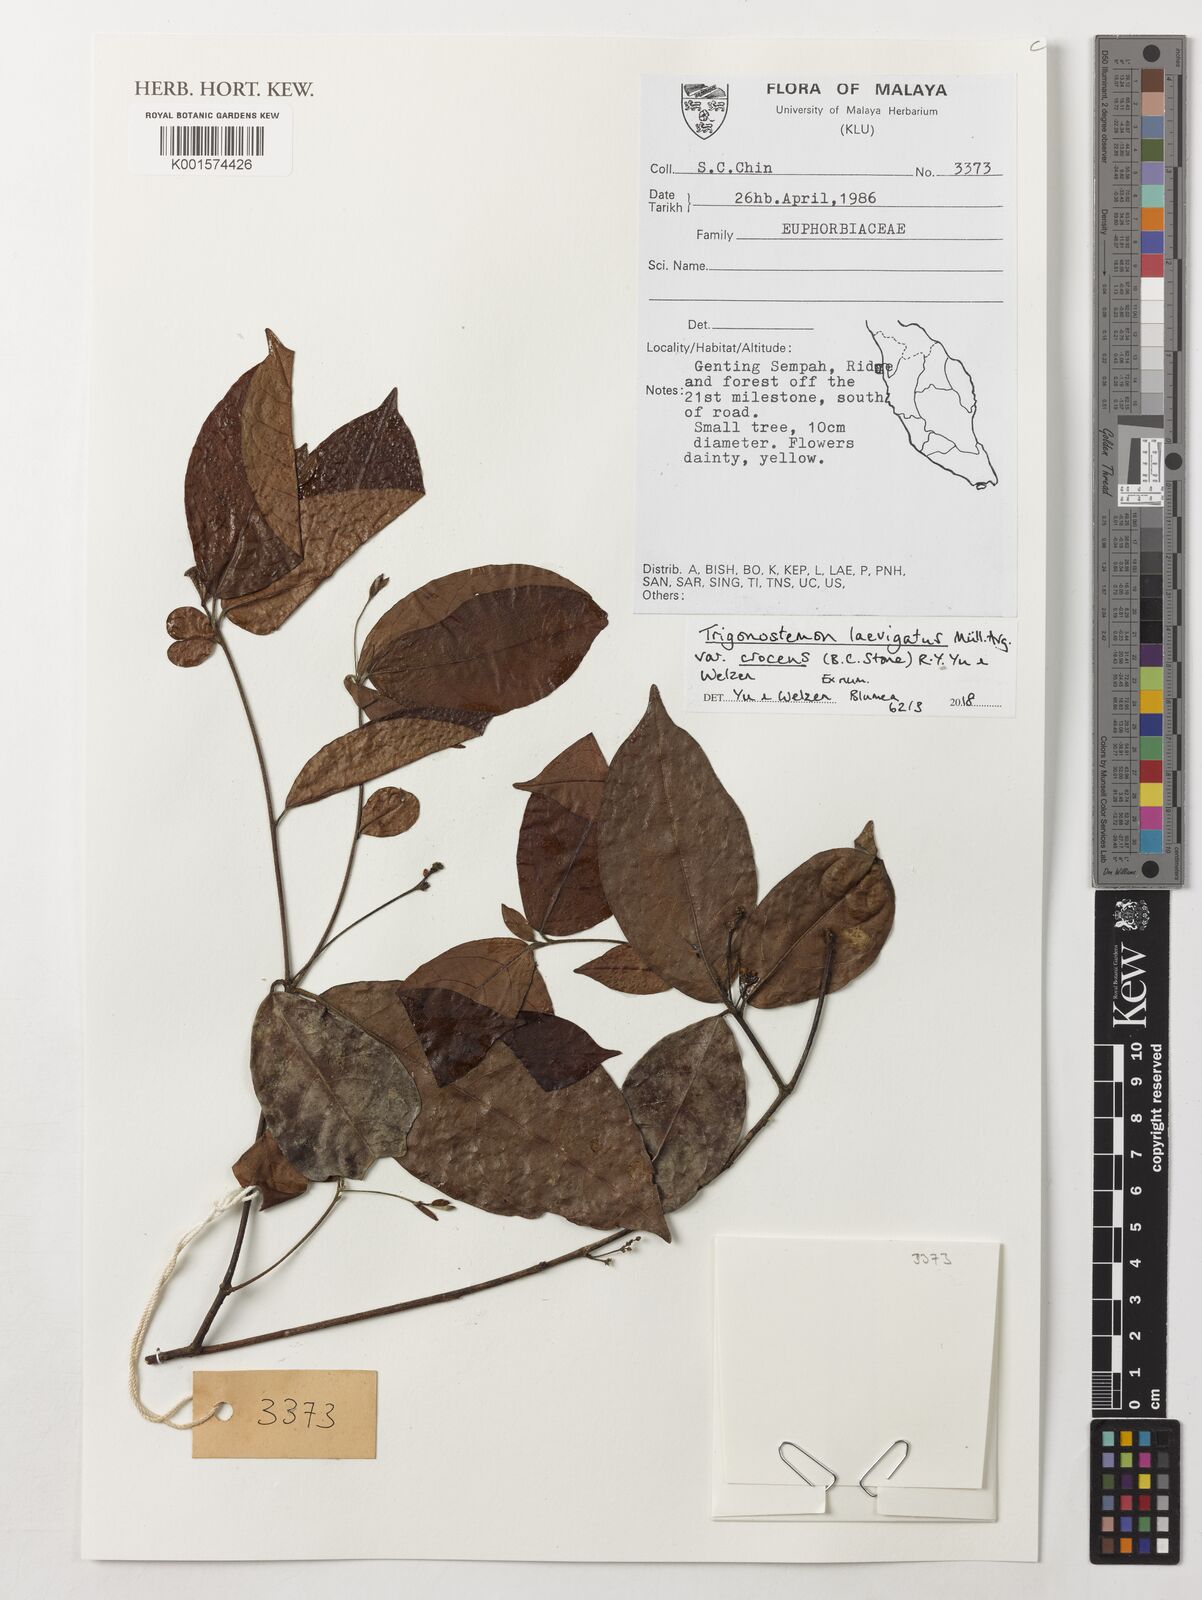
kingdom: Plantae
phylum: Tracheophyta
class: Magnoliopsida
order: Malpighiales
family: Euphorbiaceae
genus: Trigonostemon
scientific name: Trigonostemon laevigatus
